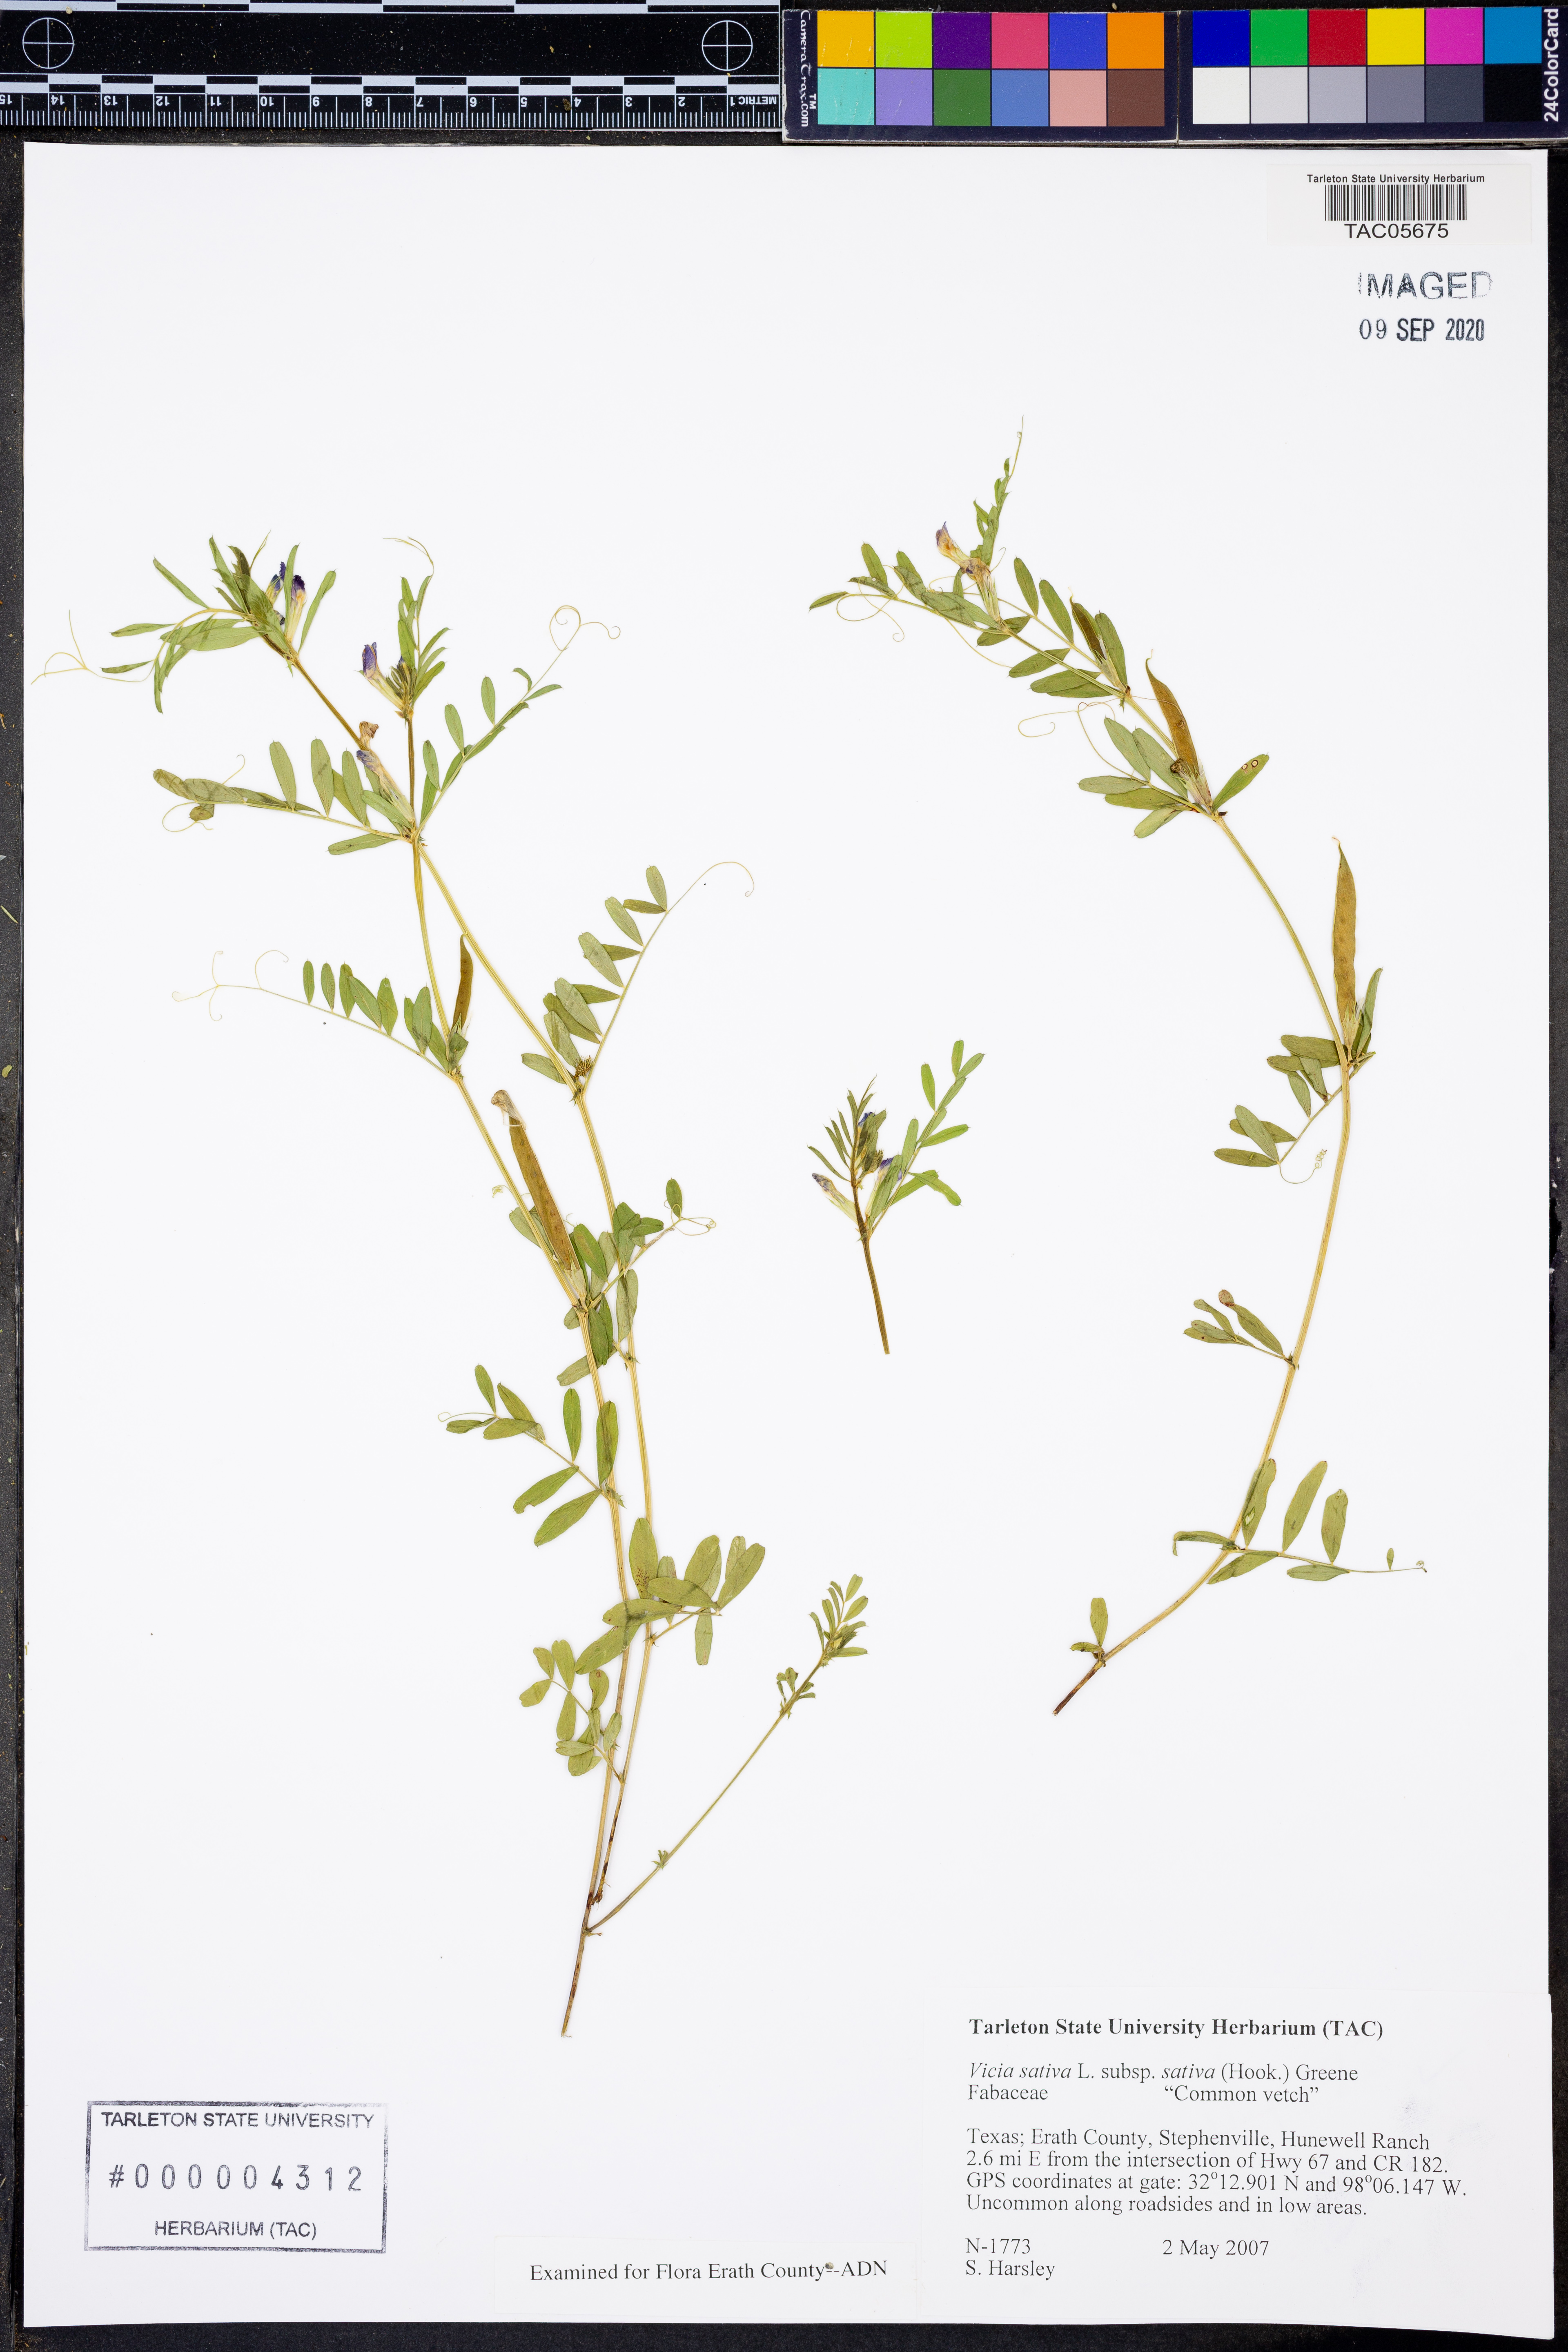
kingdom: Plantae
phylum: Tracheophyta
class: Magnoliopsida
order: Fabales
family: Fabaceae
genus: Vicia
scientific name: Vicia sativa
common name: Garden vetch
